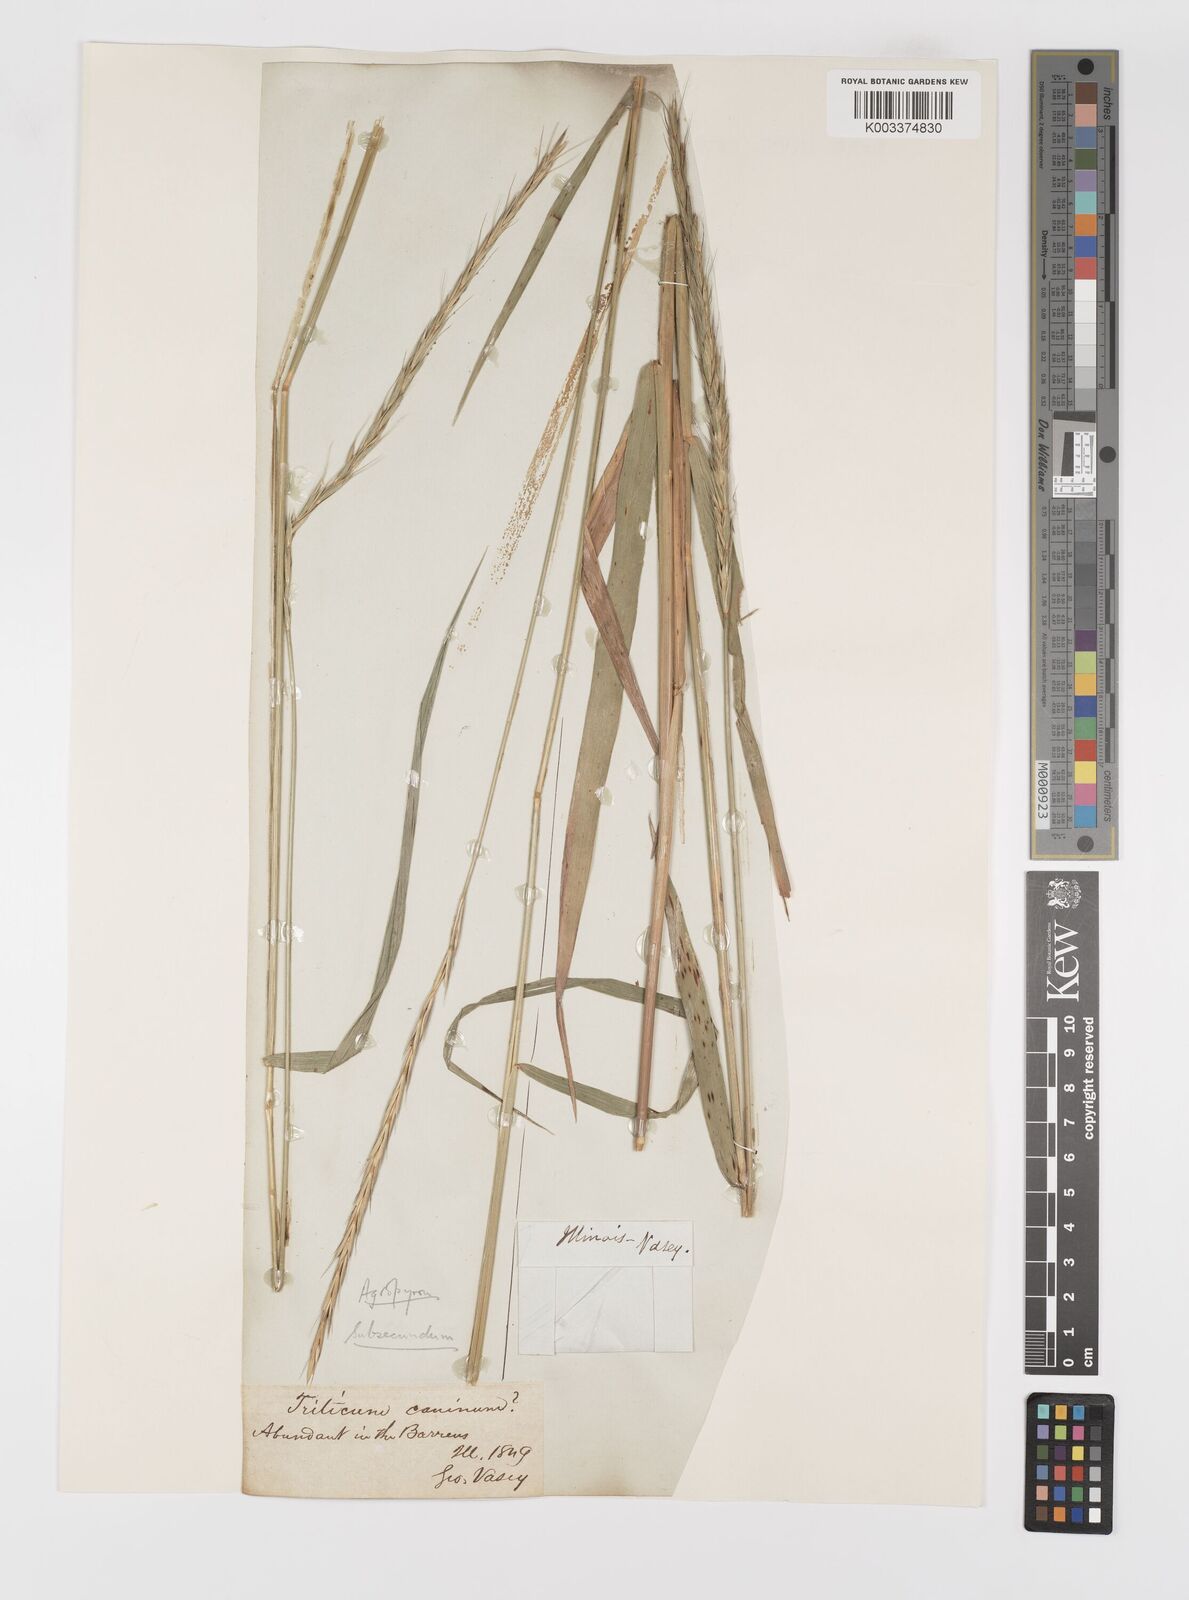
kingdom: Plantae
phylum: Tracheophyta
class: Liliopsida
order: Poales
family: Poaceae
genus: Elymus
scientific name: Elymus violaceus
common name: Arctic wheatgrass
